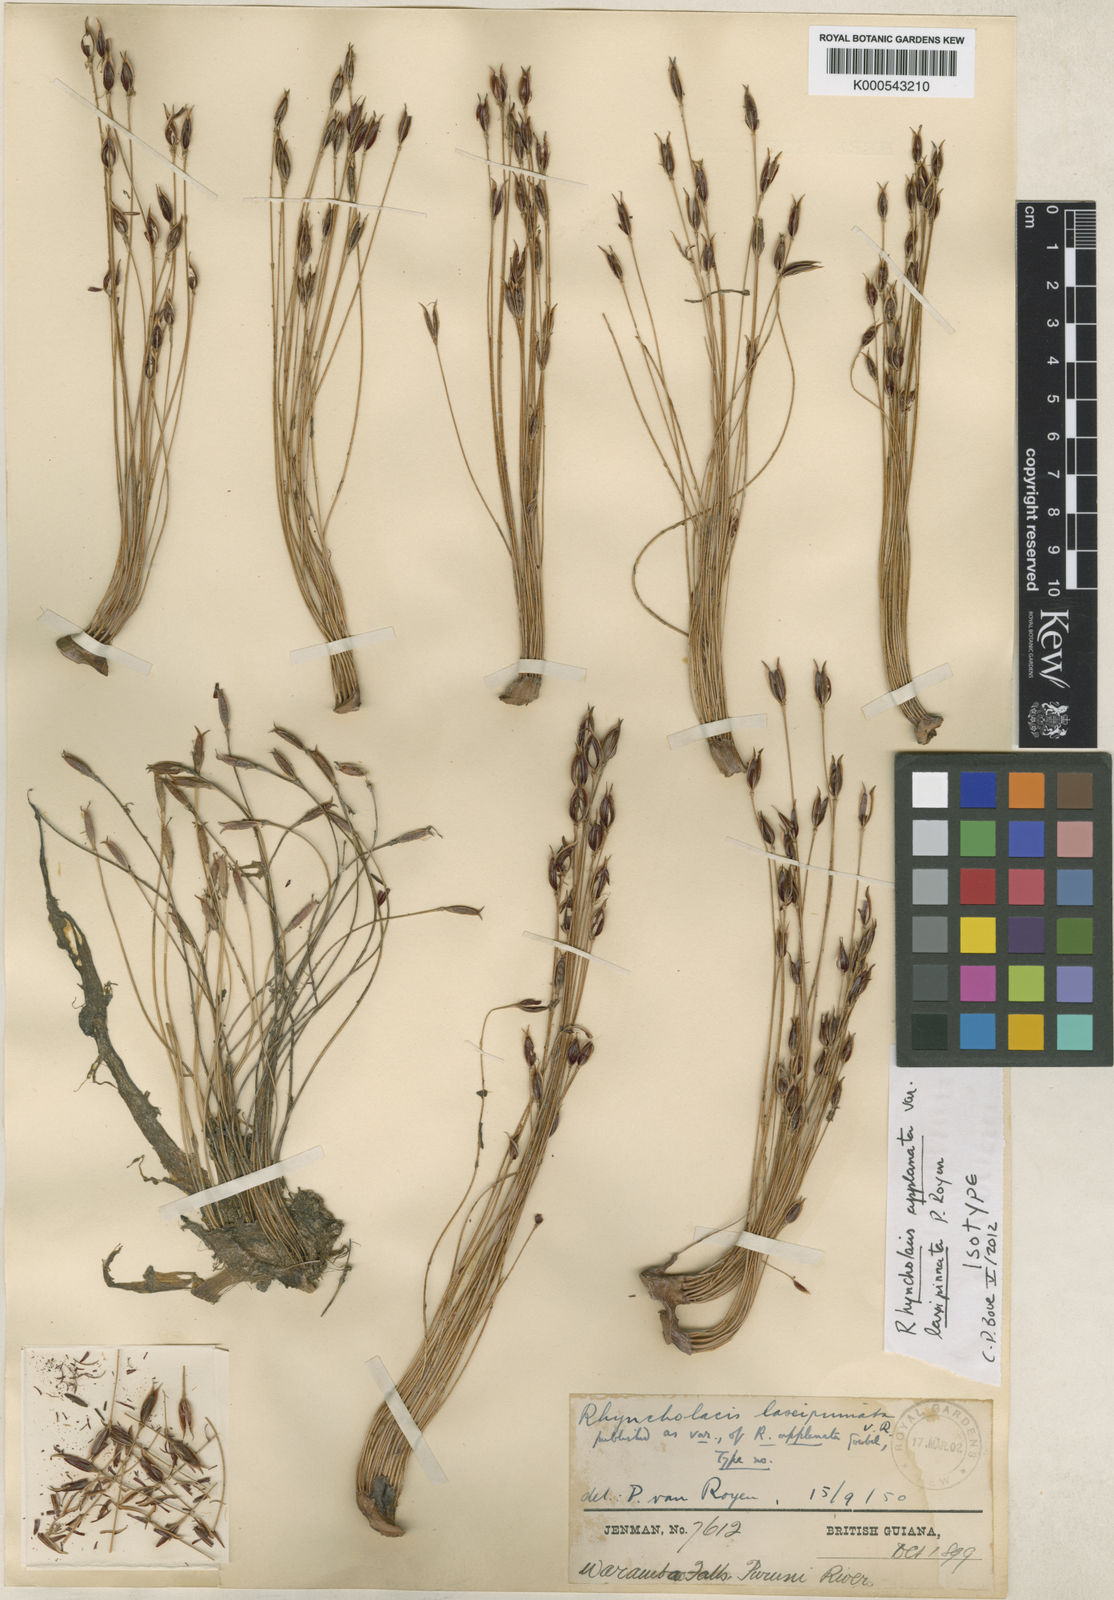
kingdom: Plantae
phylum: Tracheophyta
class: Magnoliopsida
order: Malpighiales
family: Podostemaceae
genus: Rhyncholacis
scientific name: Rhyncholacis applanata
